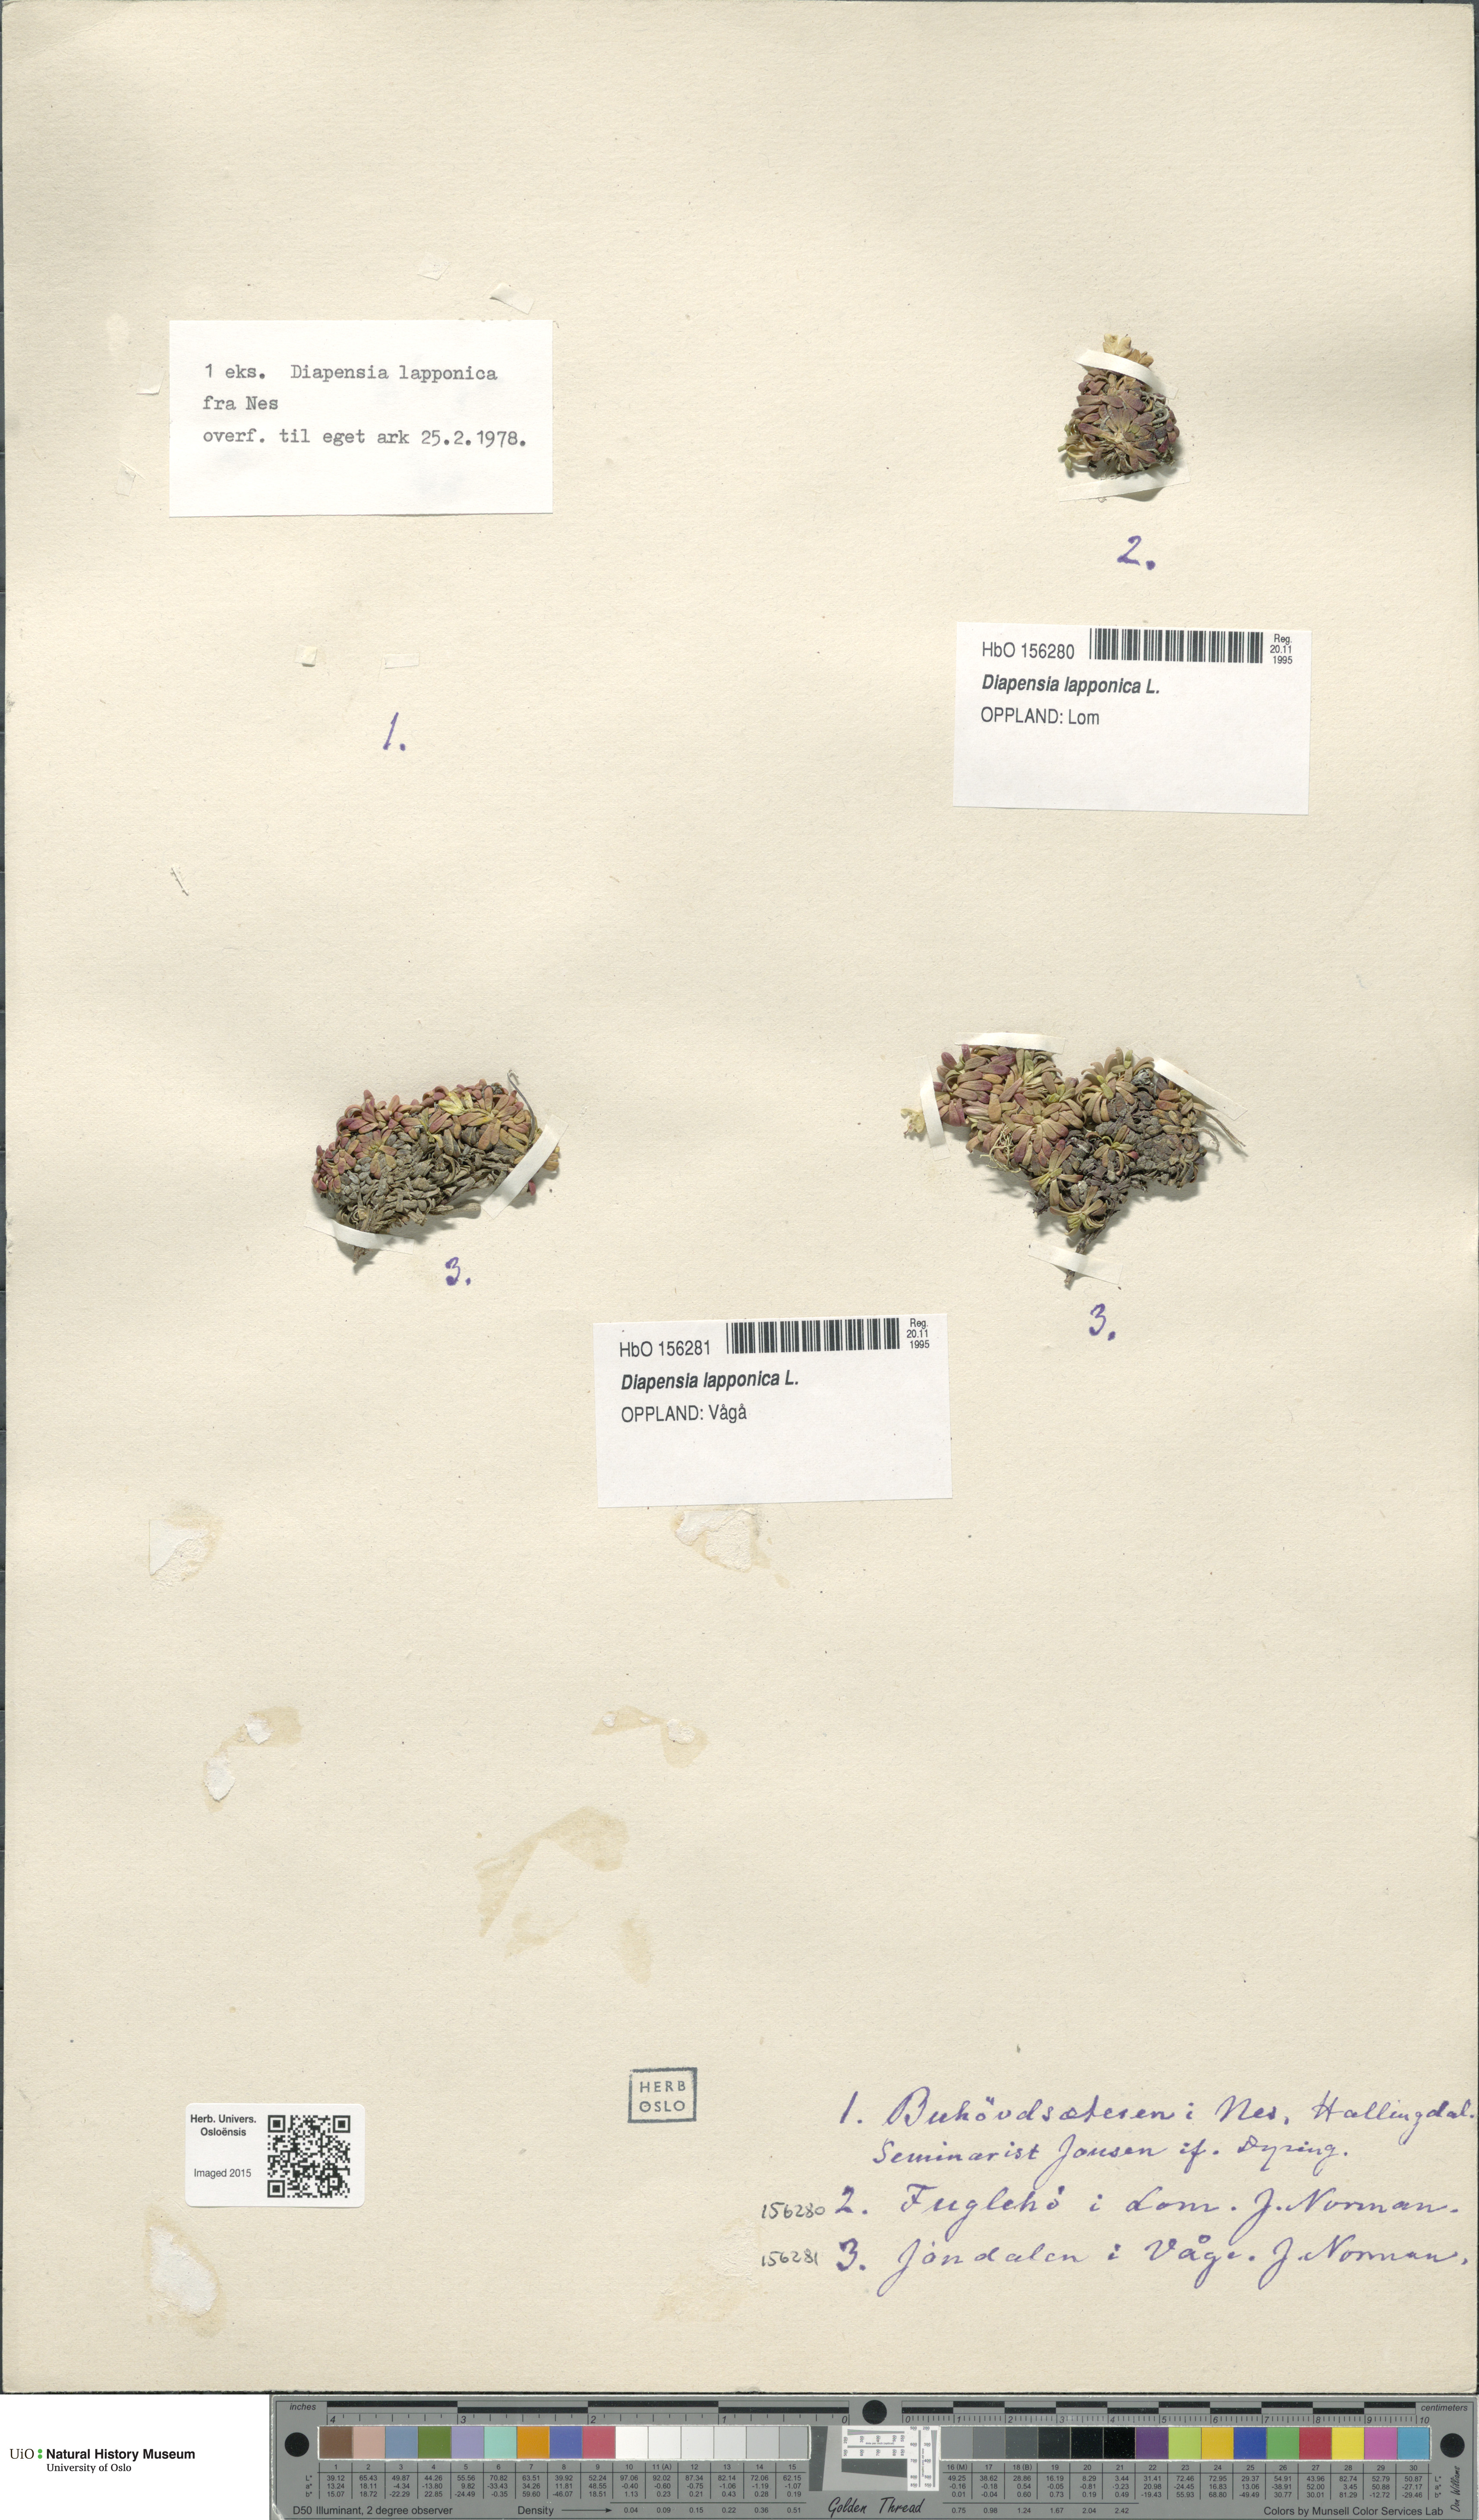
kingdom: Plantae
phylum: Tracheophyta
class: Magnoliopsida
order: Ericales
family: Diapensiaceae
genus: Diapensia
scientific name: Diapensia lapponica
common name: Diapensia
